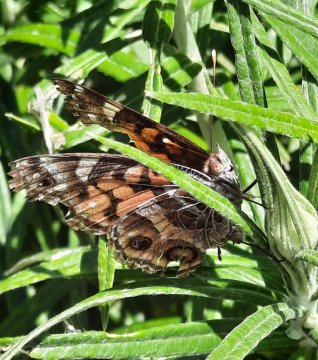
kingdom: Animalia
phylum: Arthropoda
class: Insecta
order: Lepidoptera
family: Nymphalidae
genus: Vanessa
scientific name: Vanessa virginiensis
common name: American Lady
